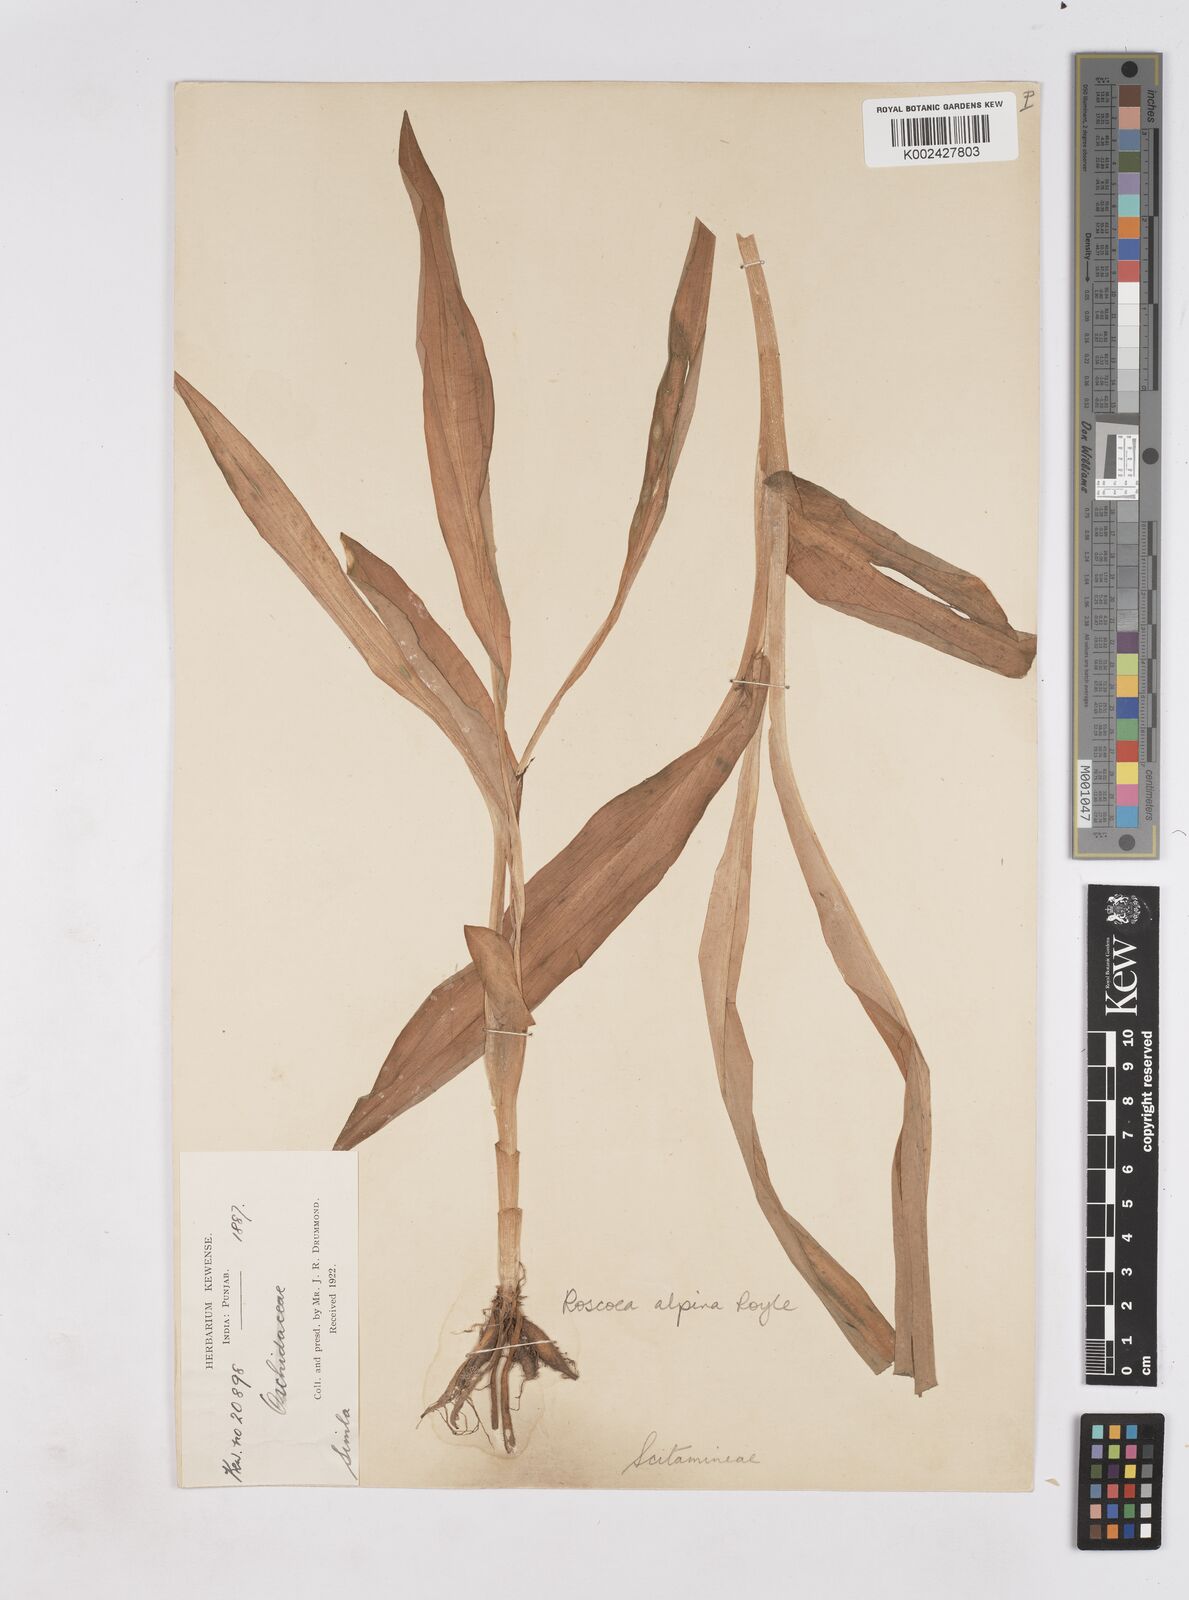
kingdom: Plantae
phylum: Tracheophyta
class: Liliopsida
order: Zingiberales
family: Zingiberaceae
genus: Roscoea
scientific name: Roscoea alpina
